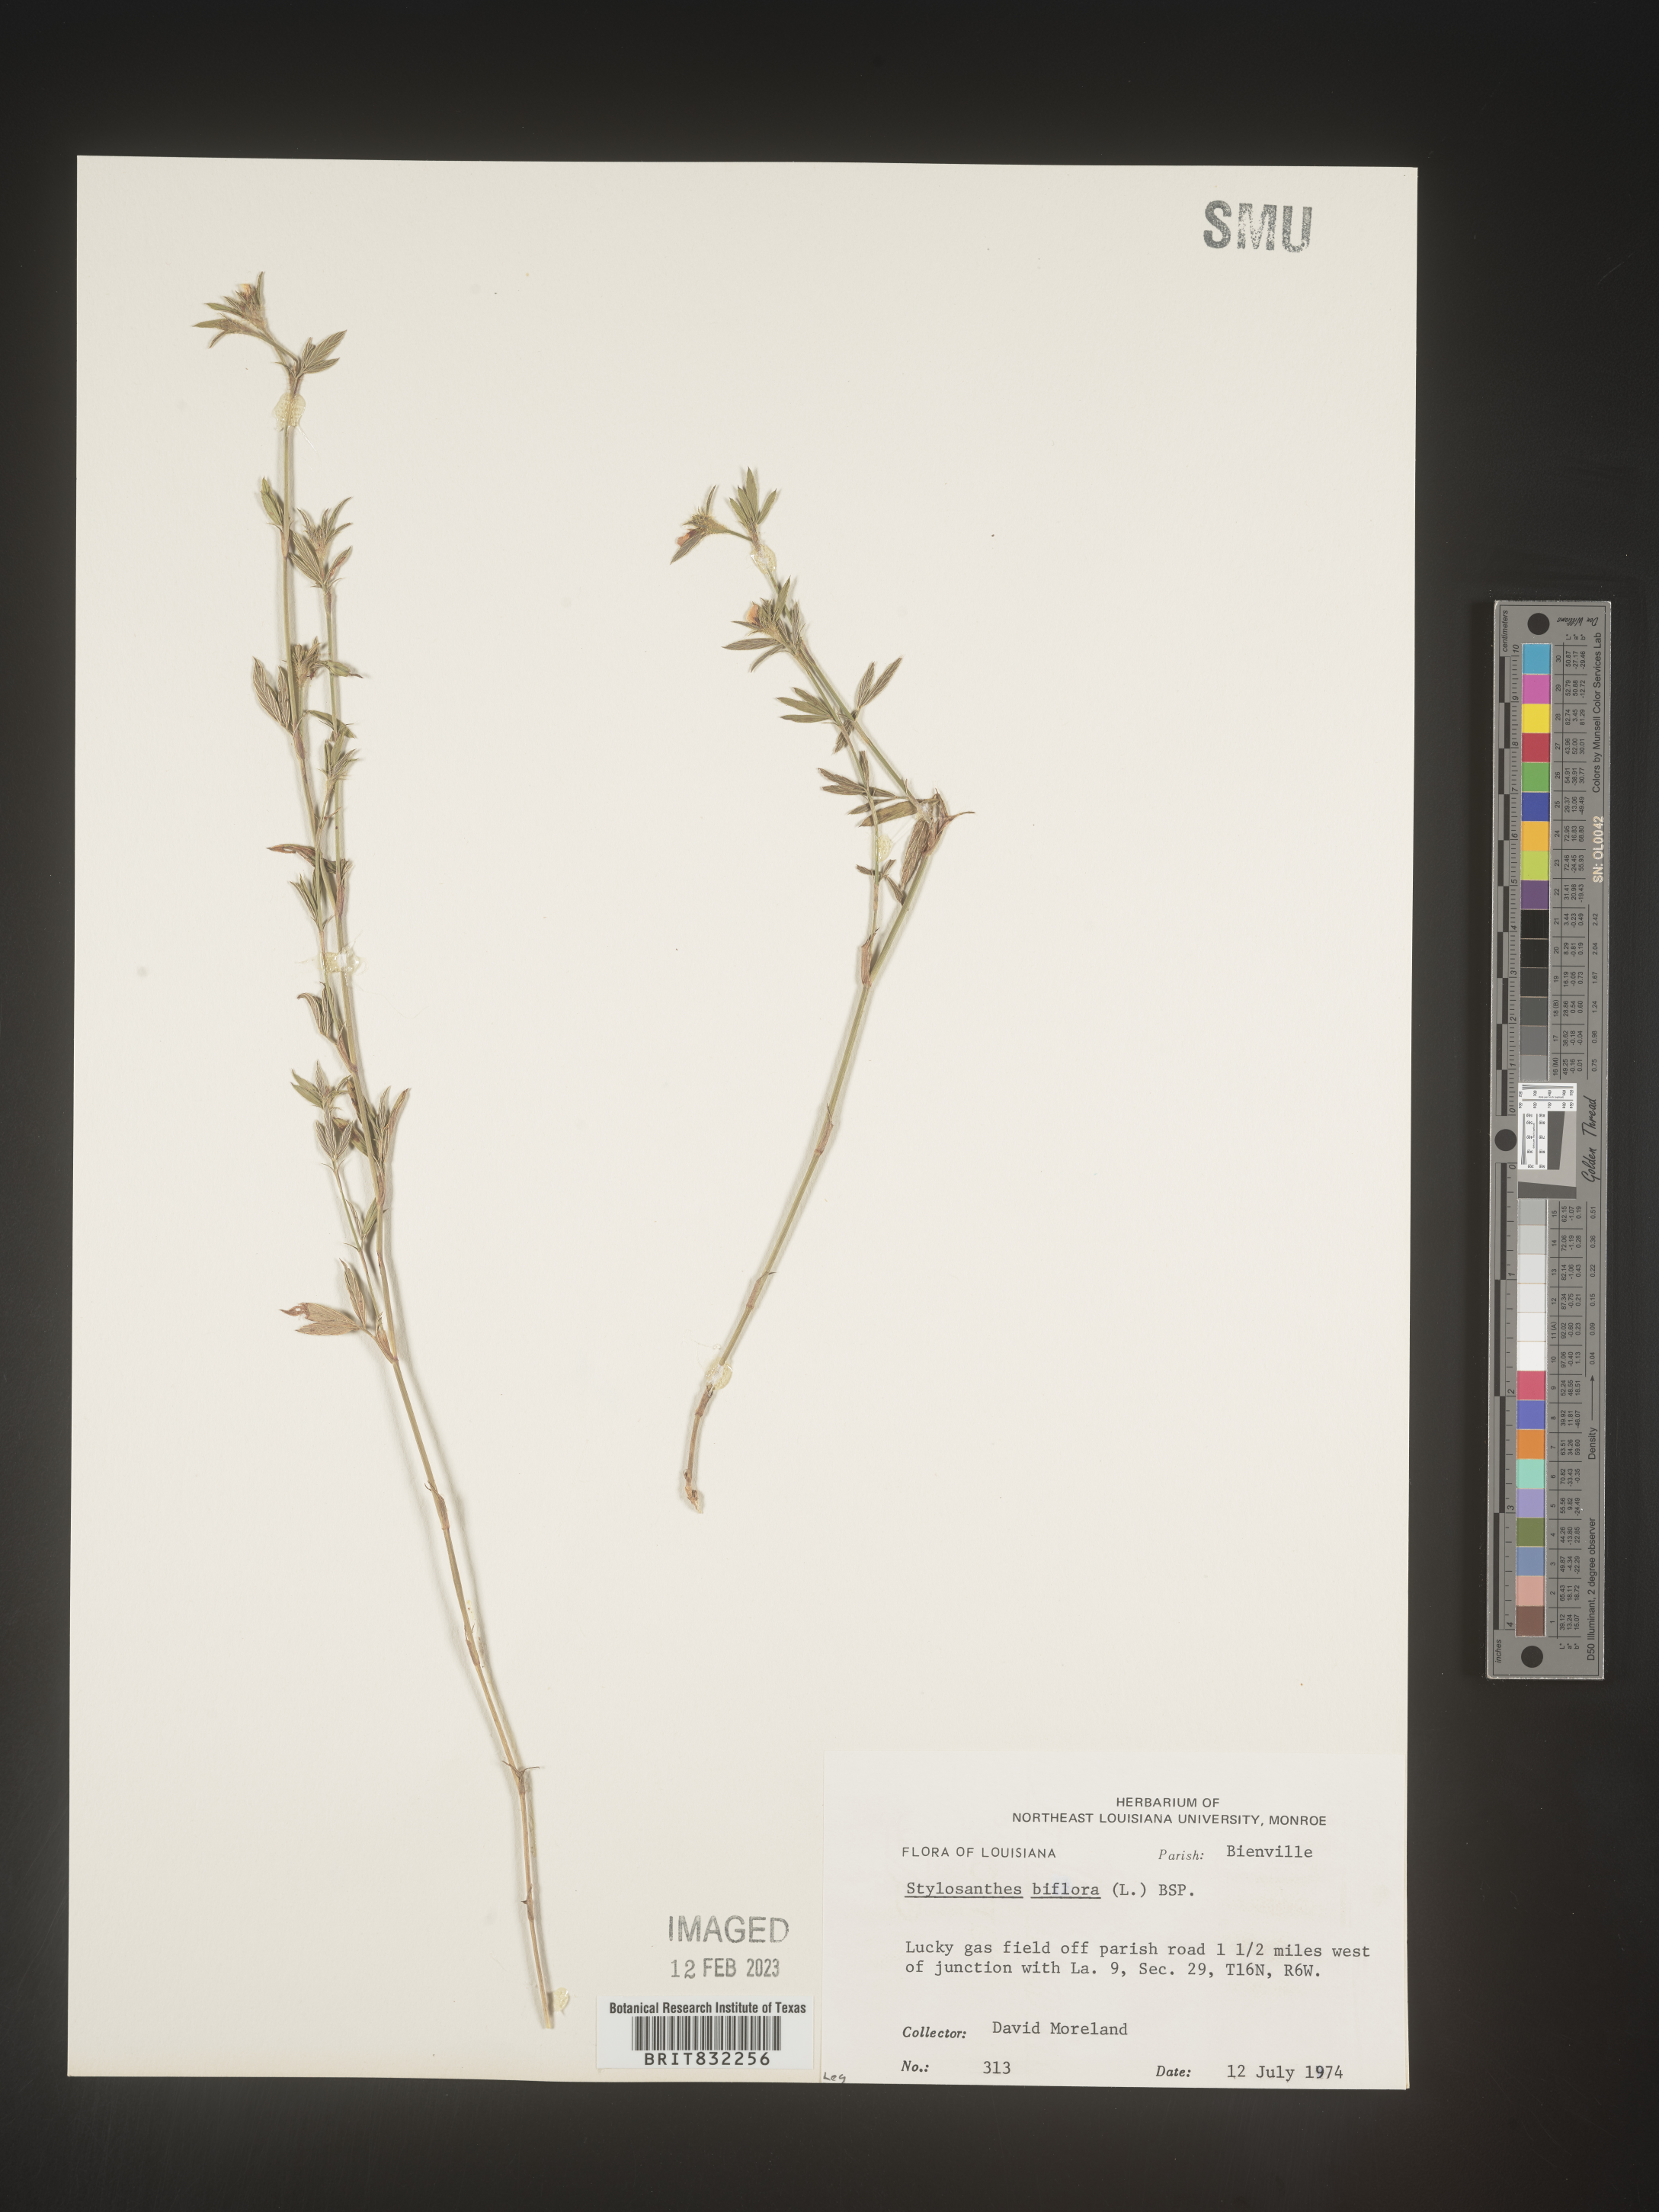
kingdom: Plantae
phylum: Tracheophyta
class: Magnoliopsida
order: Fabales
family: Fabaceae
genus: Stylosanthes
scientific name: Stylosanthes biflora
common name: Two-flower pencil-flower
